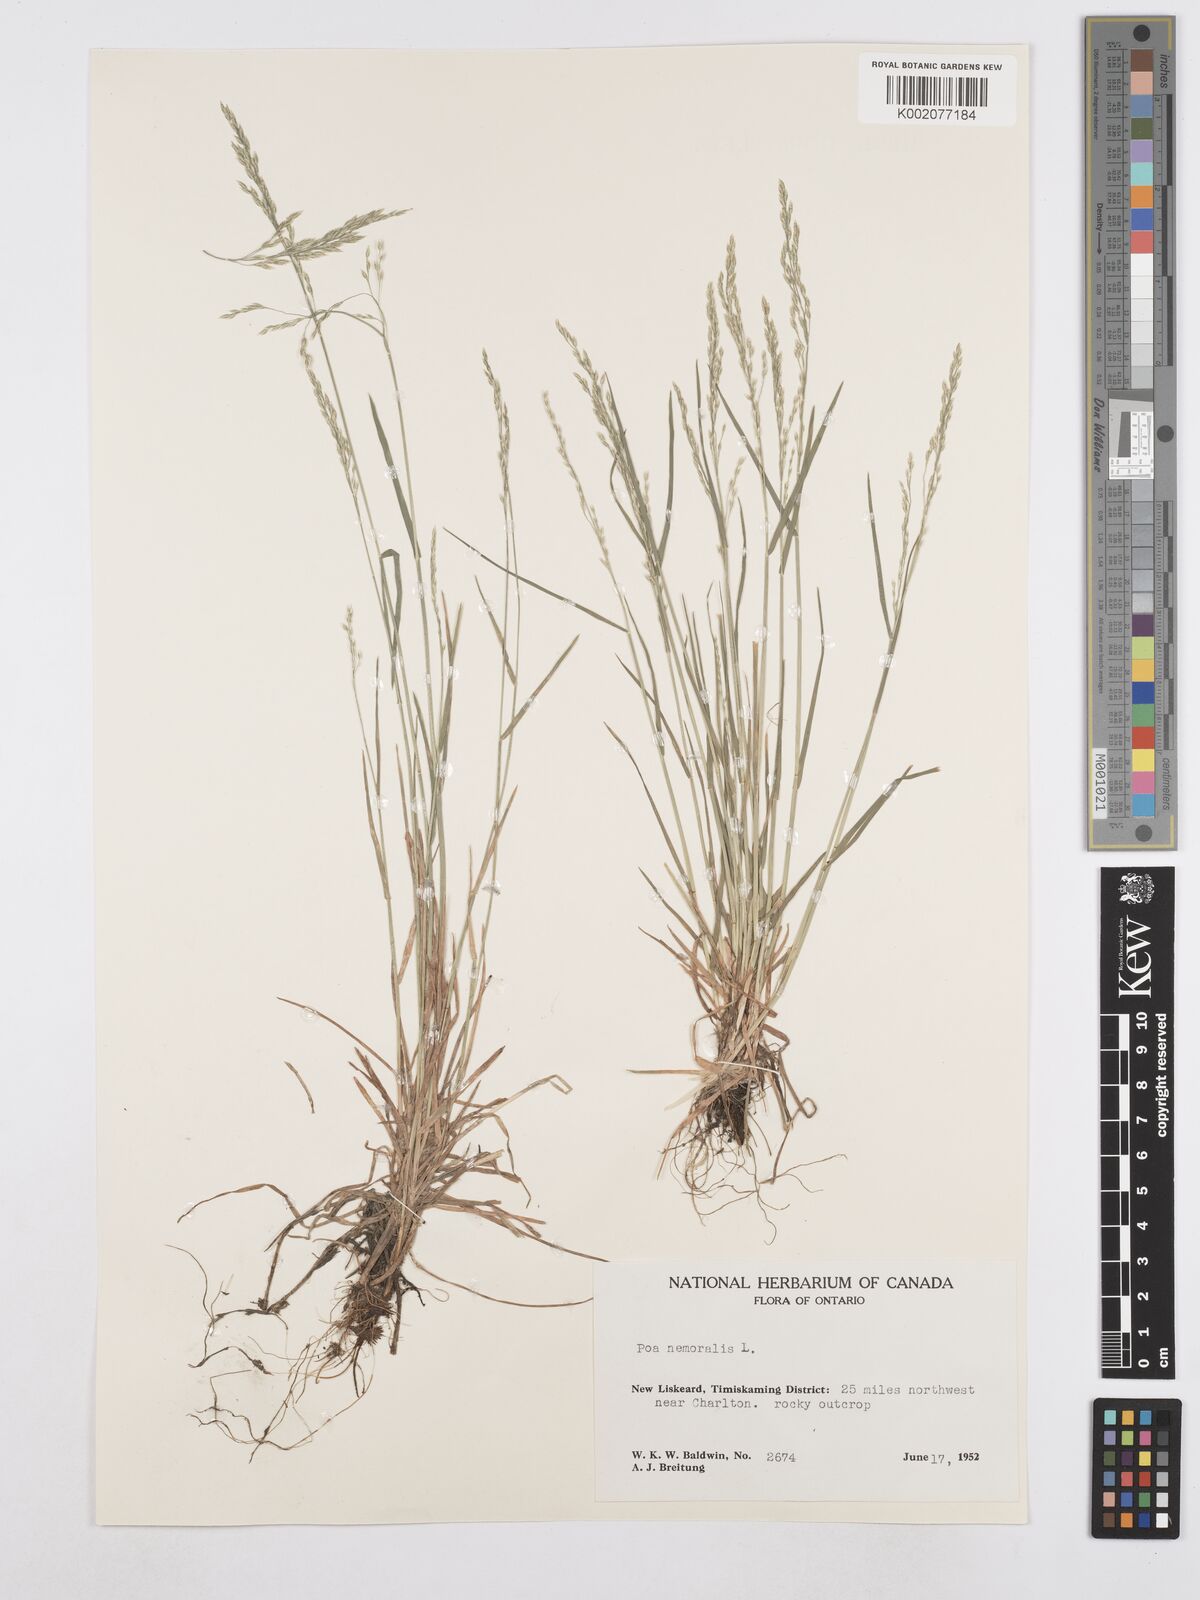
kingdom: Plantae
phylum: Tracheophyta
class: Liliopsida
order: Poales
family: Poaceae
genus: Poa
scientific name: Poa nemoralis
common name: Wood bluegrass
